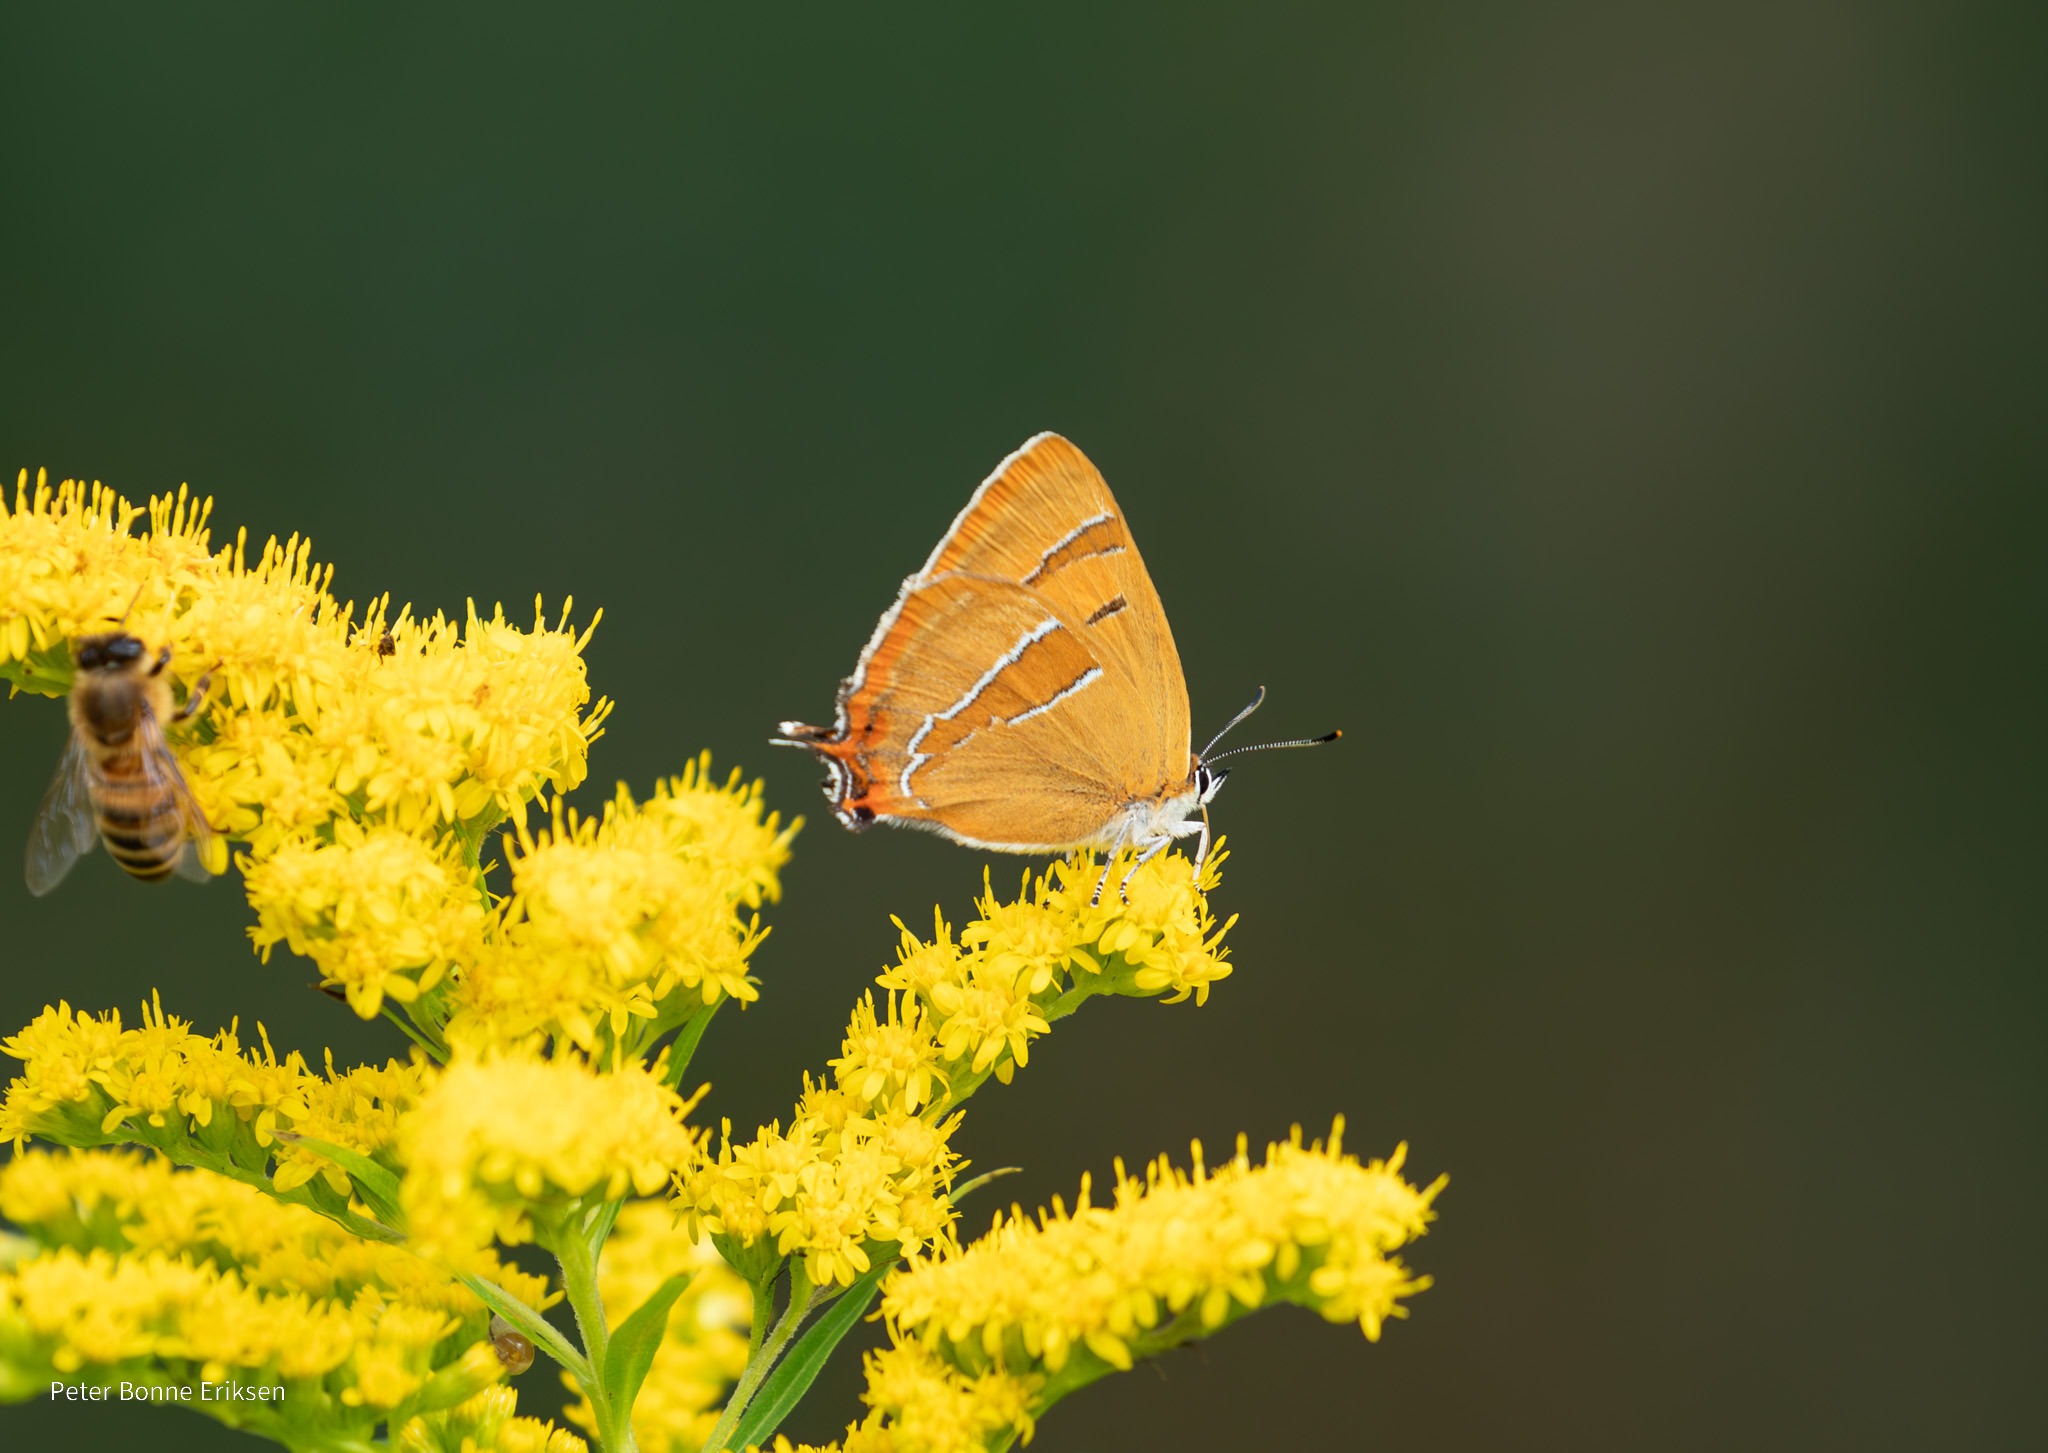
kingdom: Animalia
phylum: Arthropoda
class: Insecta
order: Lepidoptera
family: Lycaenidae
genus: Thecla
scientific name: Thecla betulae
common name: Guldhale
